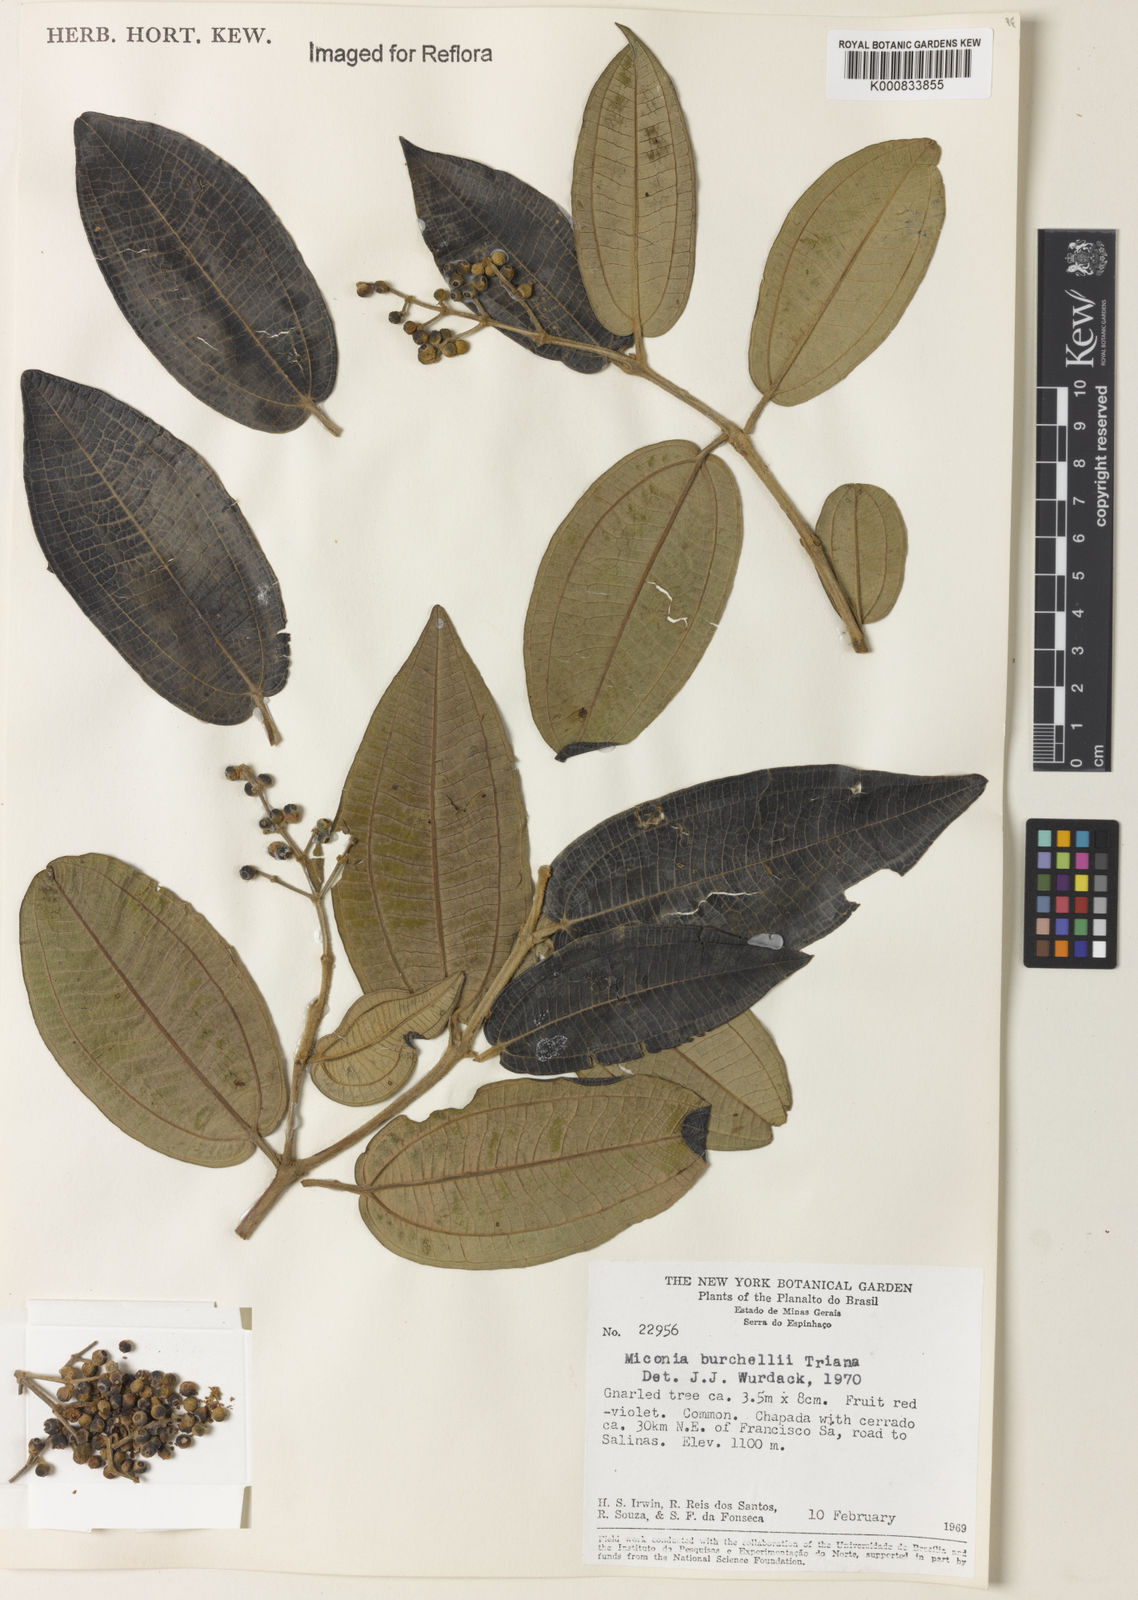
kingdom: Plantae
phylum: Tracheophyta
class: Magnoliopsida
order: Myrtales
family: Melastomataceae
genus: Miconia
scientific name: Miconia burchellii
